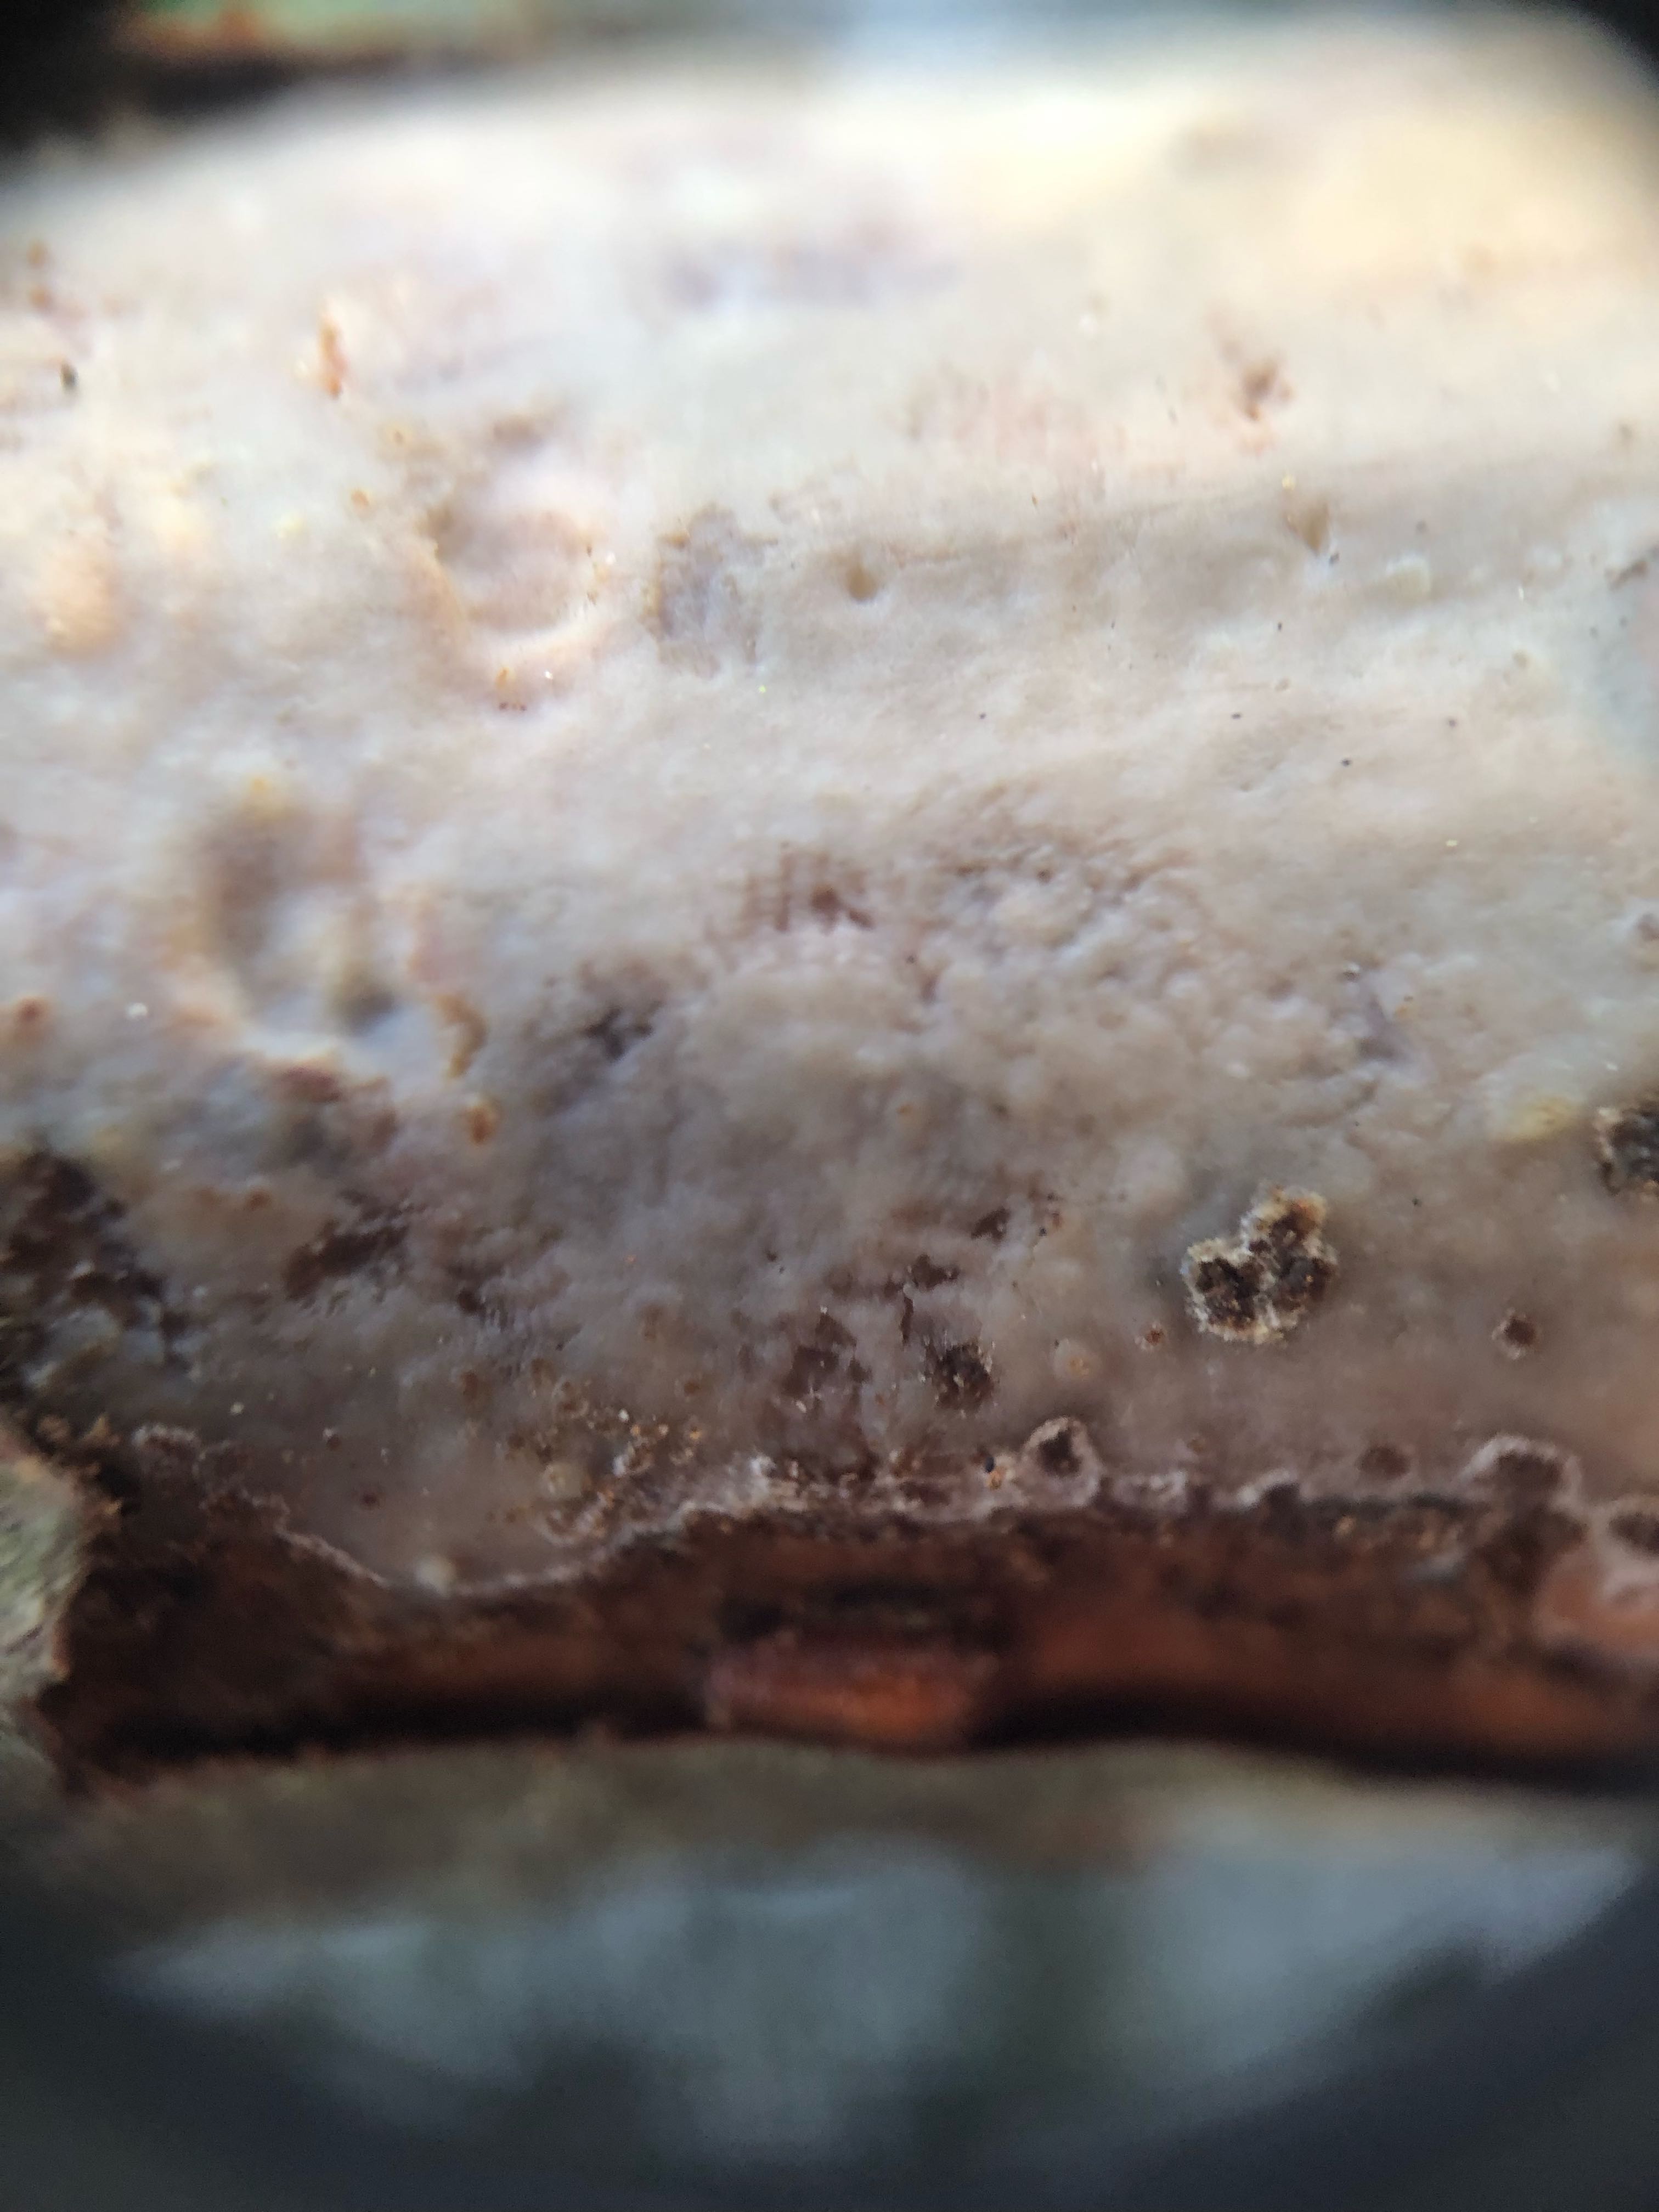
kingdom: Fungi
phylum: Basidiomycota
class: Agaricomycetes
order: Corticiales
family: Vuilleminiaceae
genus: Vuilleminia
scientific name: Vuilleminia comedens
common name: almindelig barksprænger
